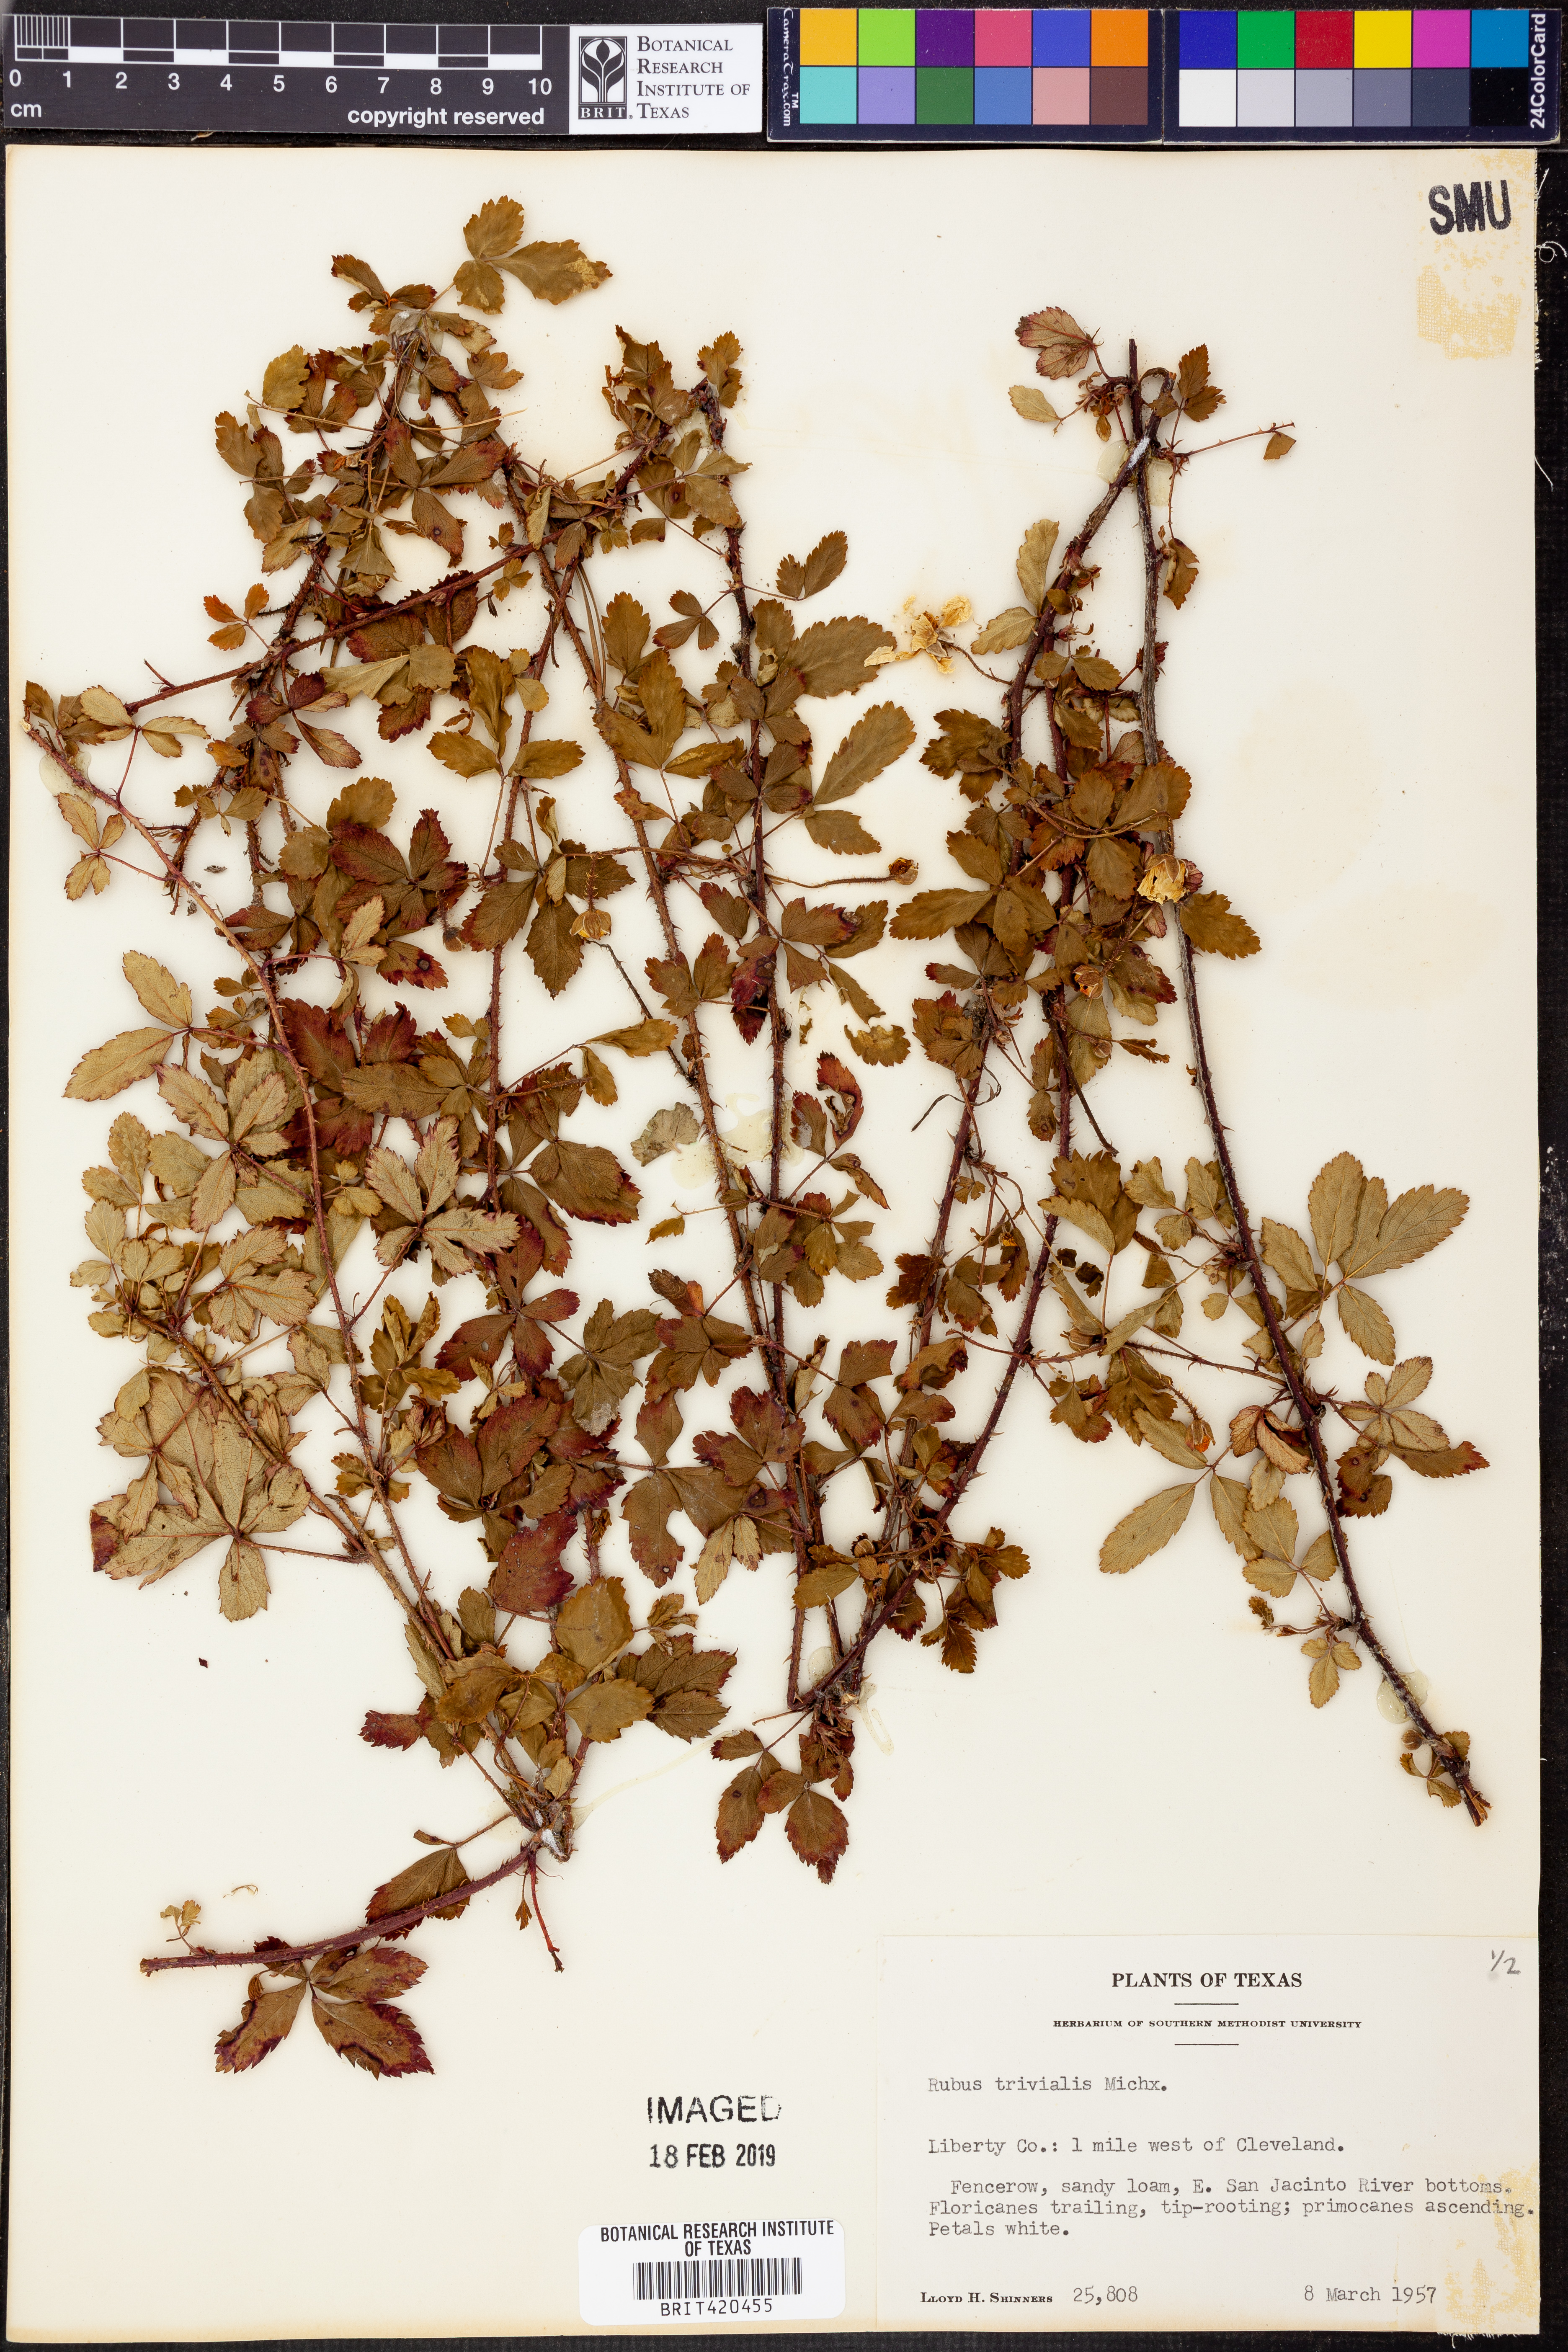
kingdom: Plantae
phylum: Tracheophyta
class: Magnoliopsida
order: Rosales
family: Rosaceae
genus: Rubus
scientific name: Rubus trivialis
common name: Southern dewberry
